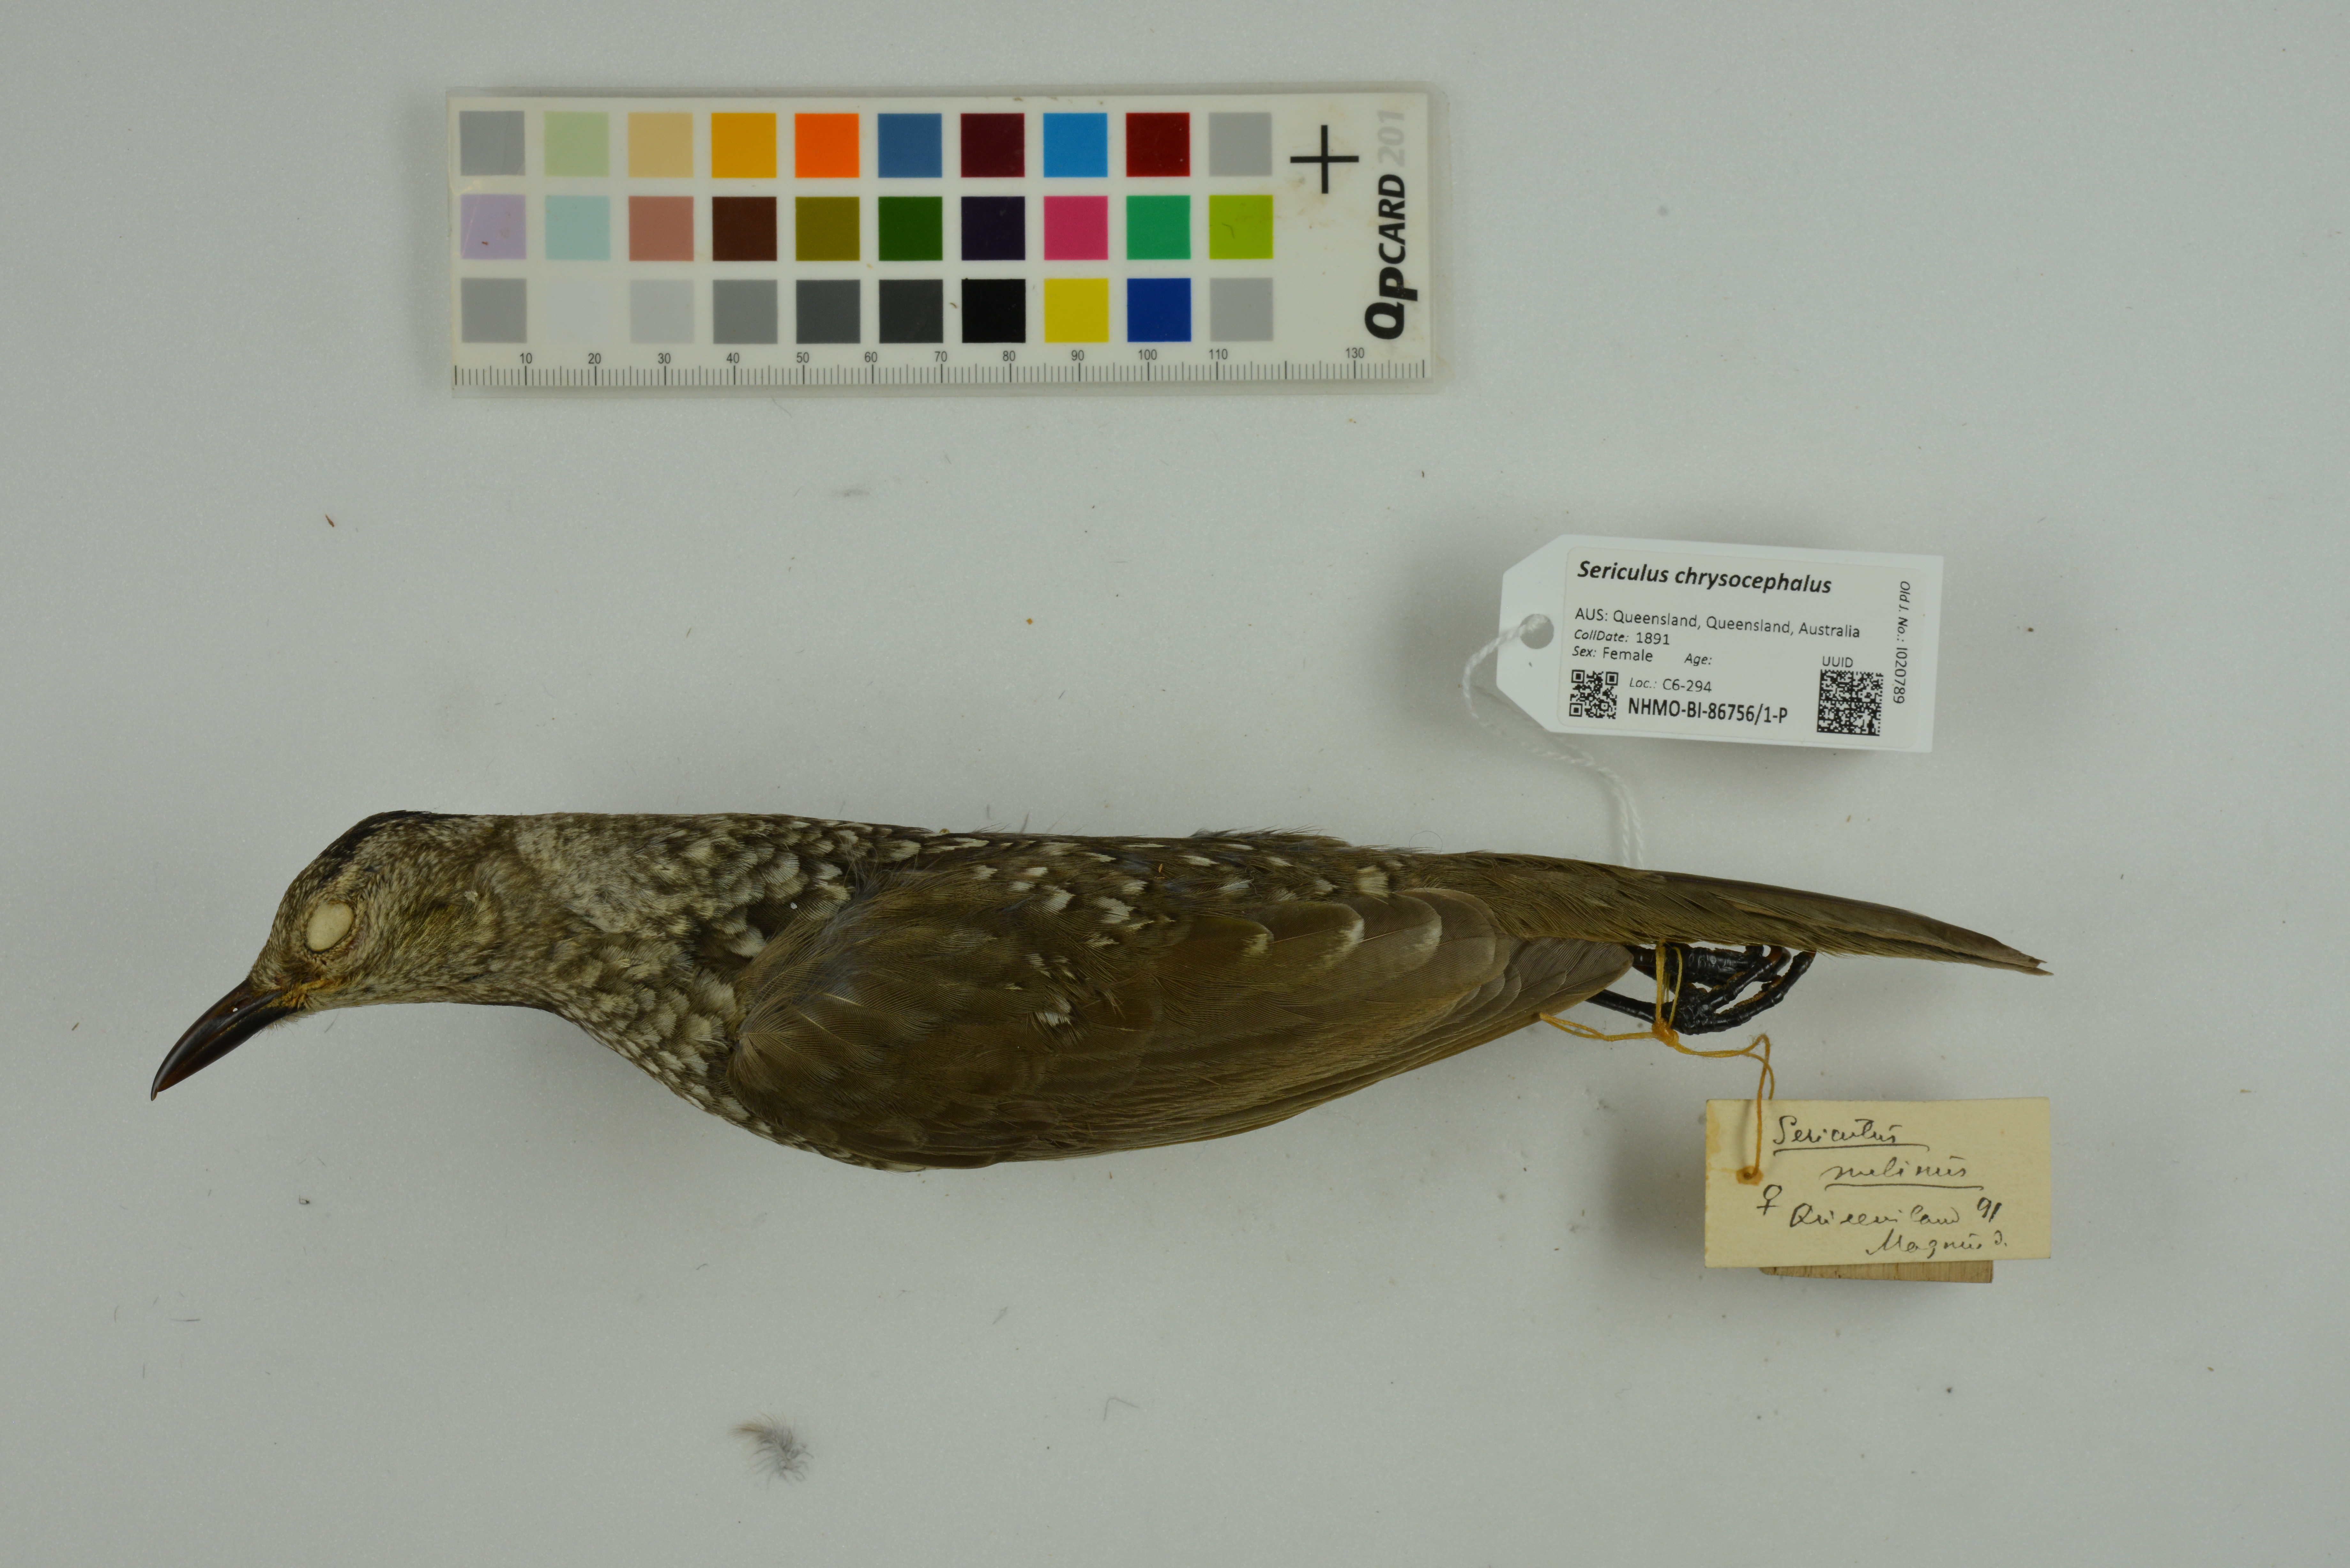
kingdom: Animalia
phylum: Chordata
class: Aves
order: Passeriformes
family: Ptilonorhynchidae
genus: Sericulus
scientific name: Sericulus chrysocephalus
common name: Regent bowerbird
